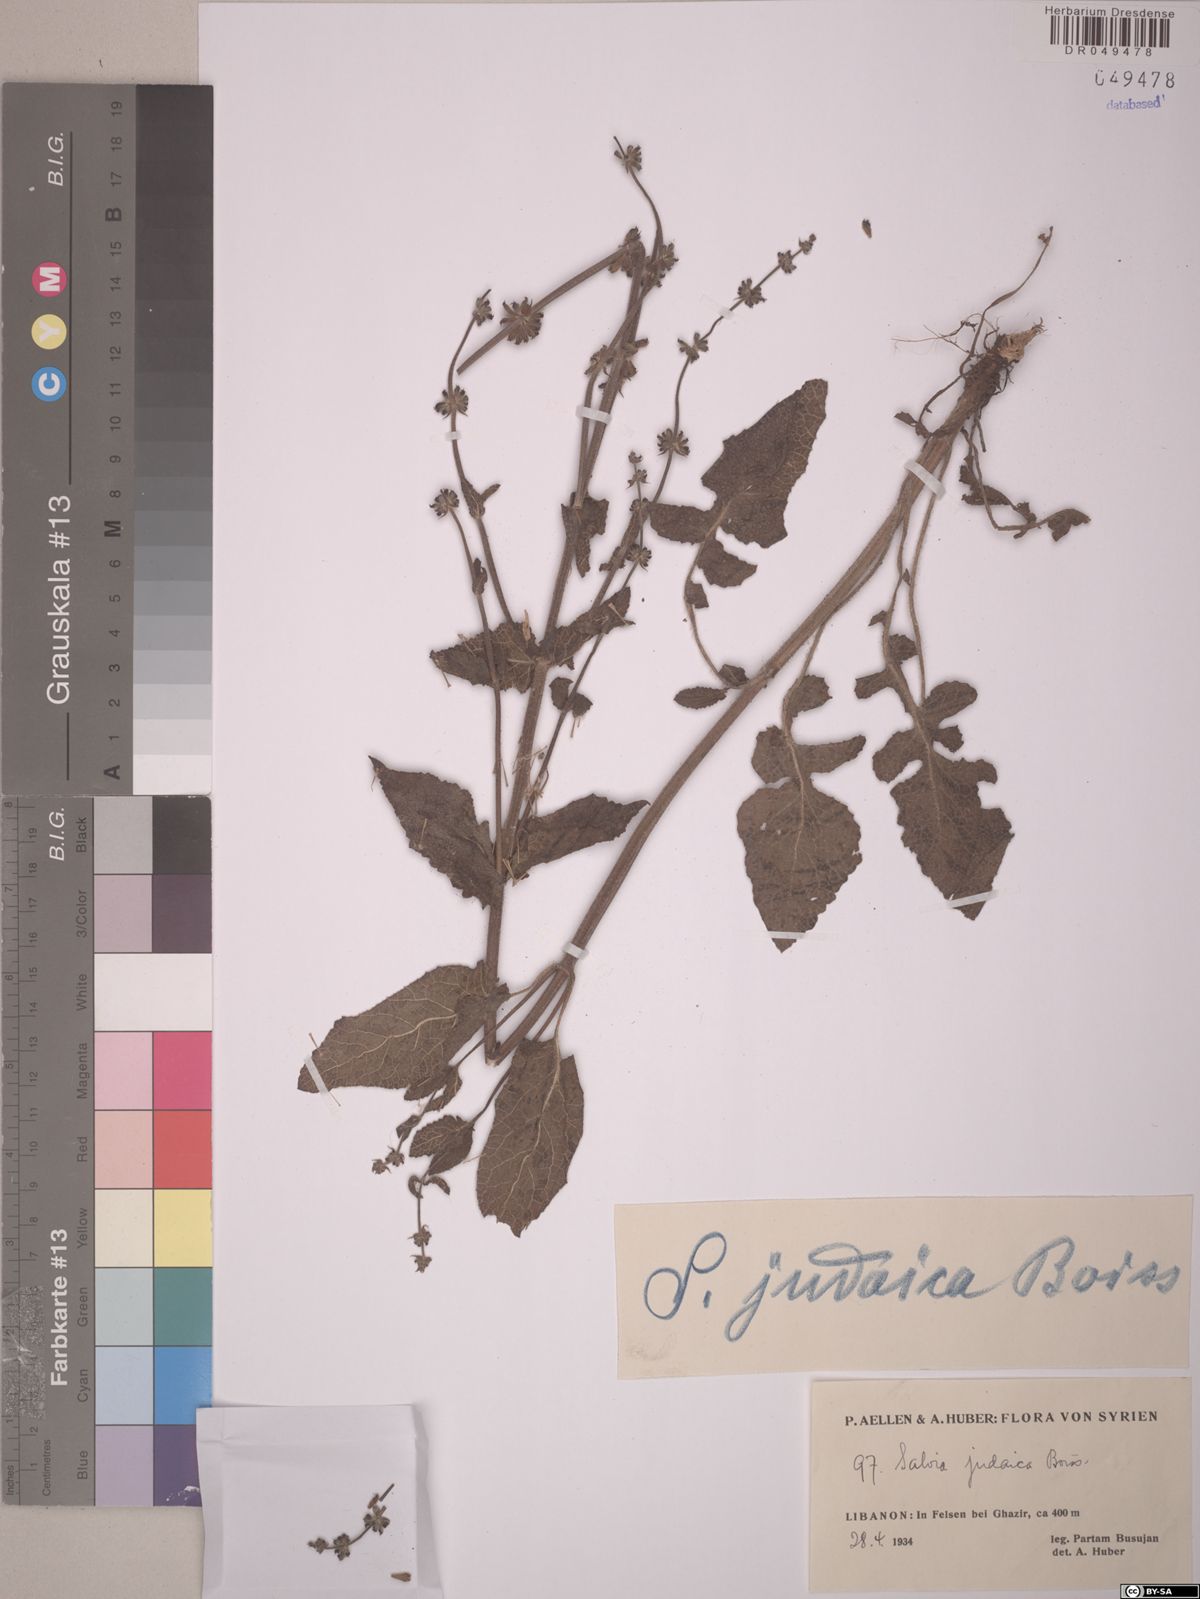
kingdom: Plantae
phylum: Tracheophyta
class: Magnoliopsida
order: Lamiales
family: Lamiaceae
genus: Salvia
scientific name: Salvia judaica
